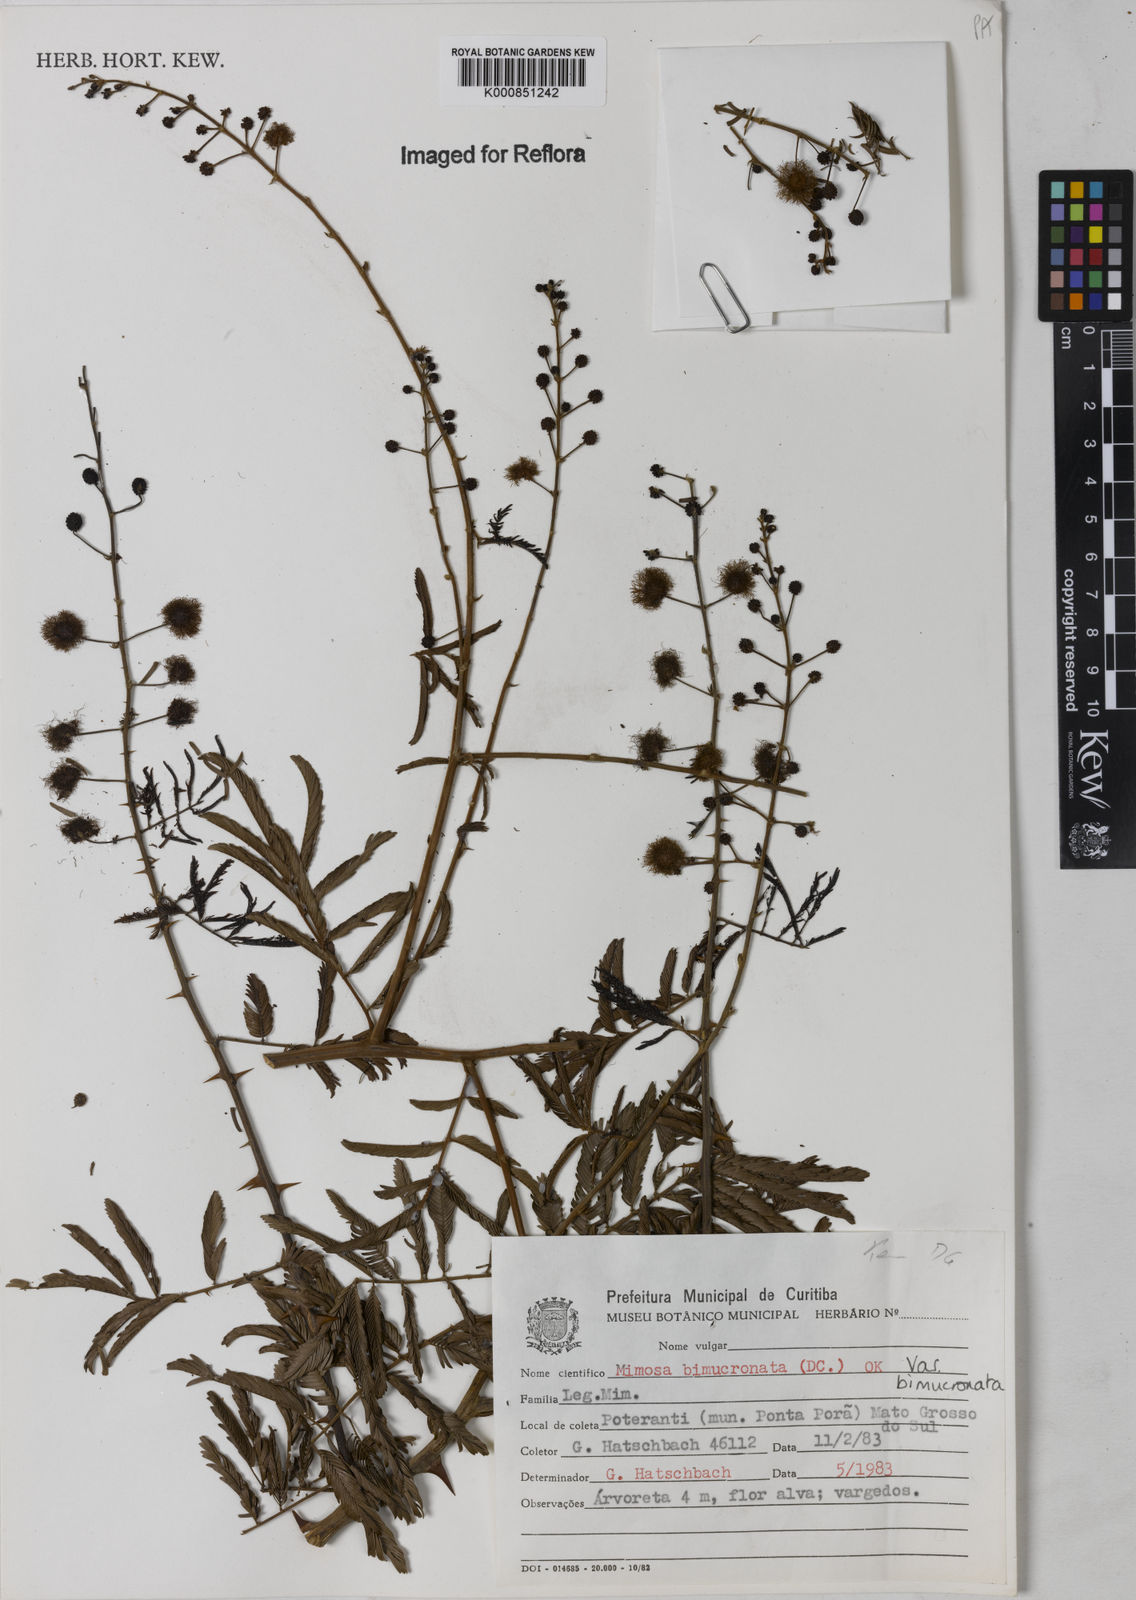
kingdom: Plantae
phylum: Tracheophyta
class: Magnoliopsida
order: Fabales
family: Fabaceae
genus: Mimosa
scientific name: Mimosa bimucronata
